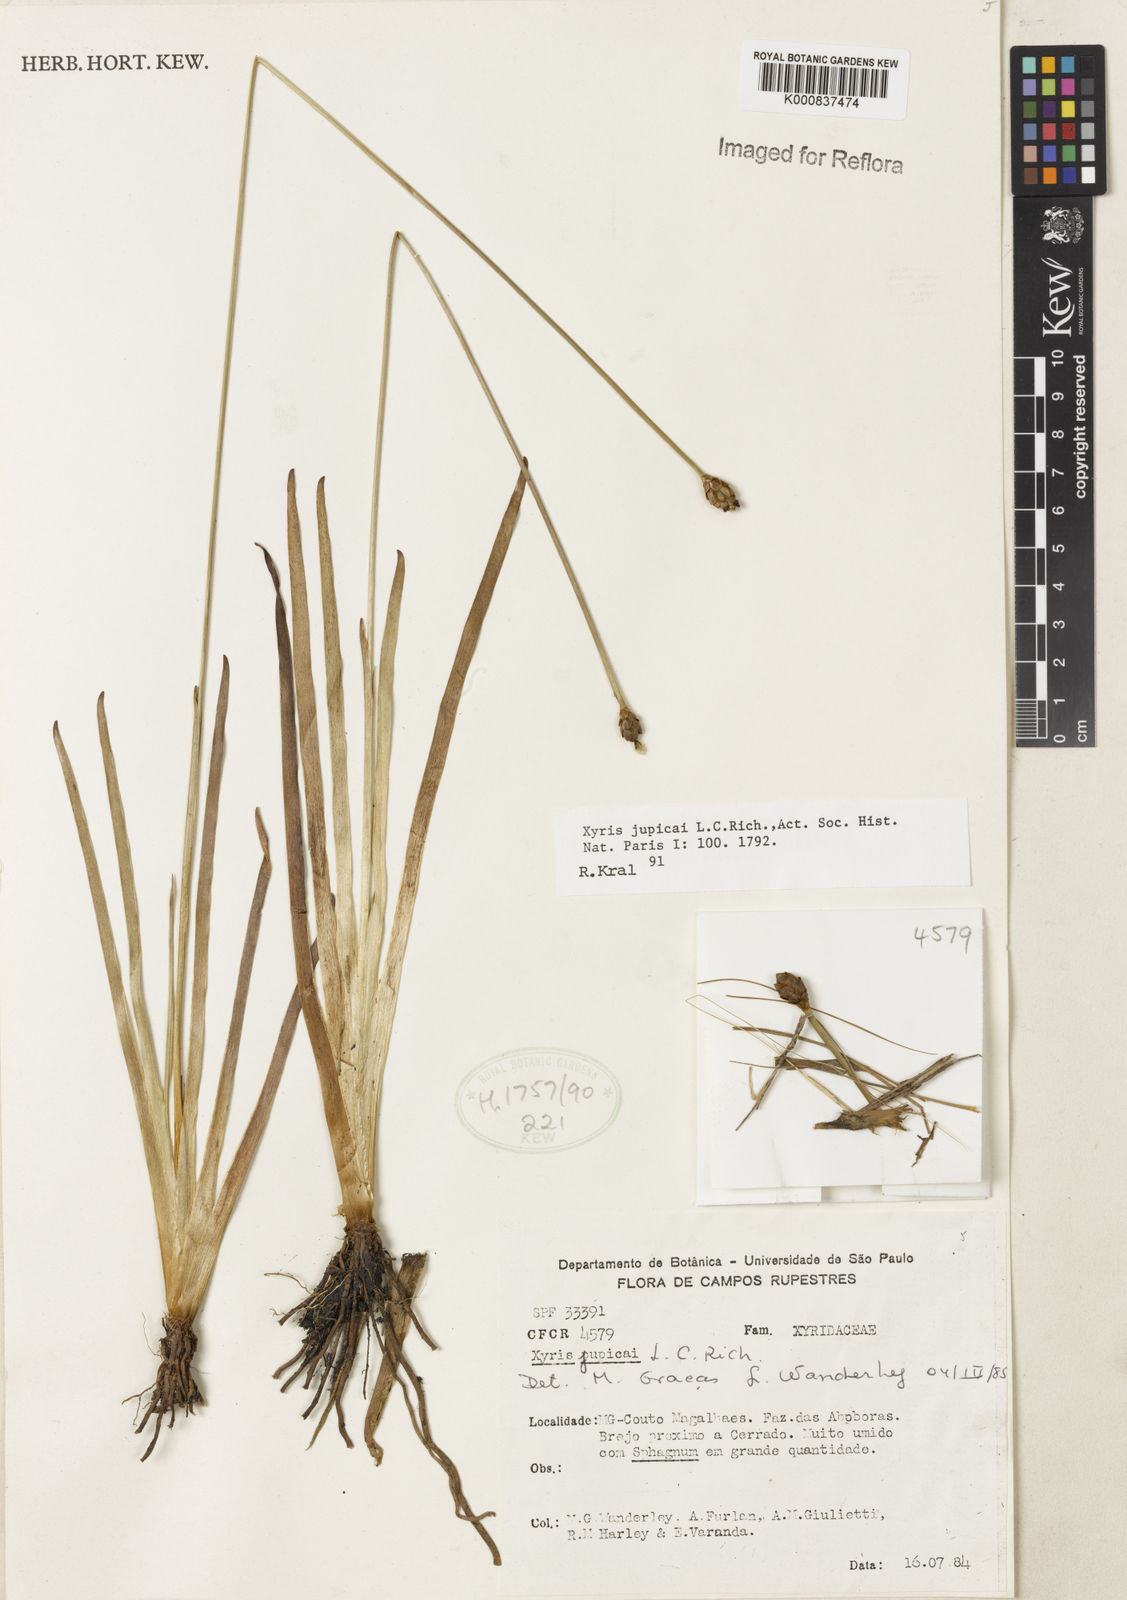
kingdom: Plantae
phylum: Tracheophyta
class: Liliopsida
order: Poales
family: Xyridaceae
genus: Xyris
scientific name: Xyris jupicai
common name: Richard's yelloweyed grass
